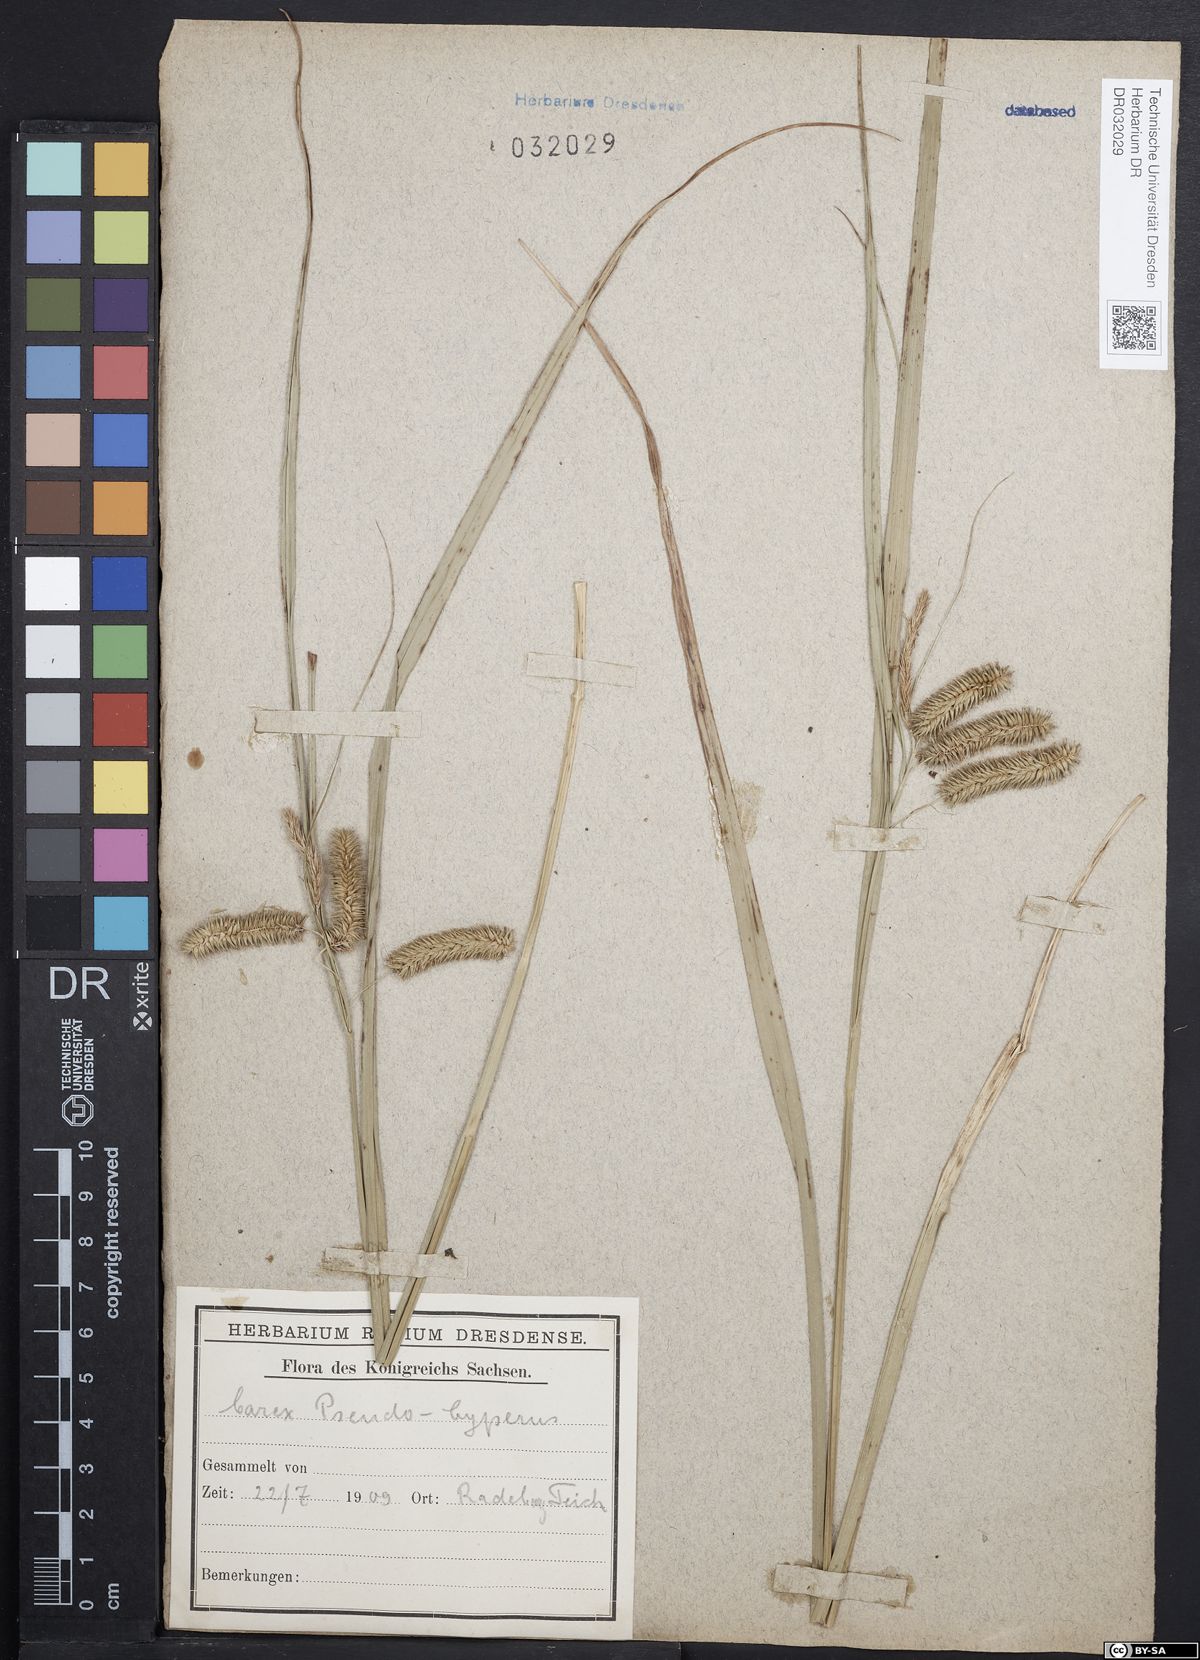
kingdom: Plantae
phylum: Tracheophyta
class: Liliopsida
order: Poales
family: Cyperaceae
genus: Carex
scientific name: Carex pseudocyperus
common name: Cyperus sedge
